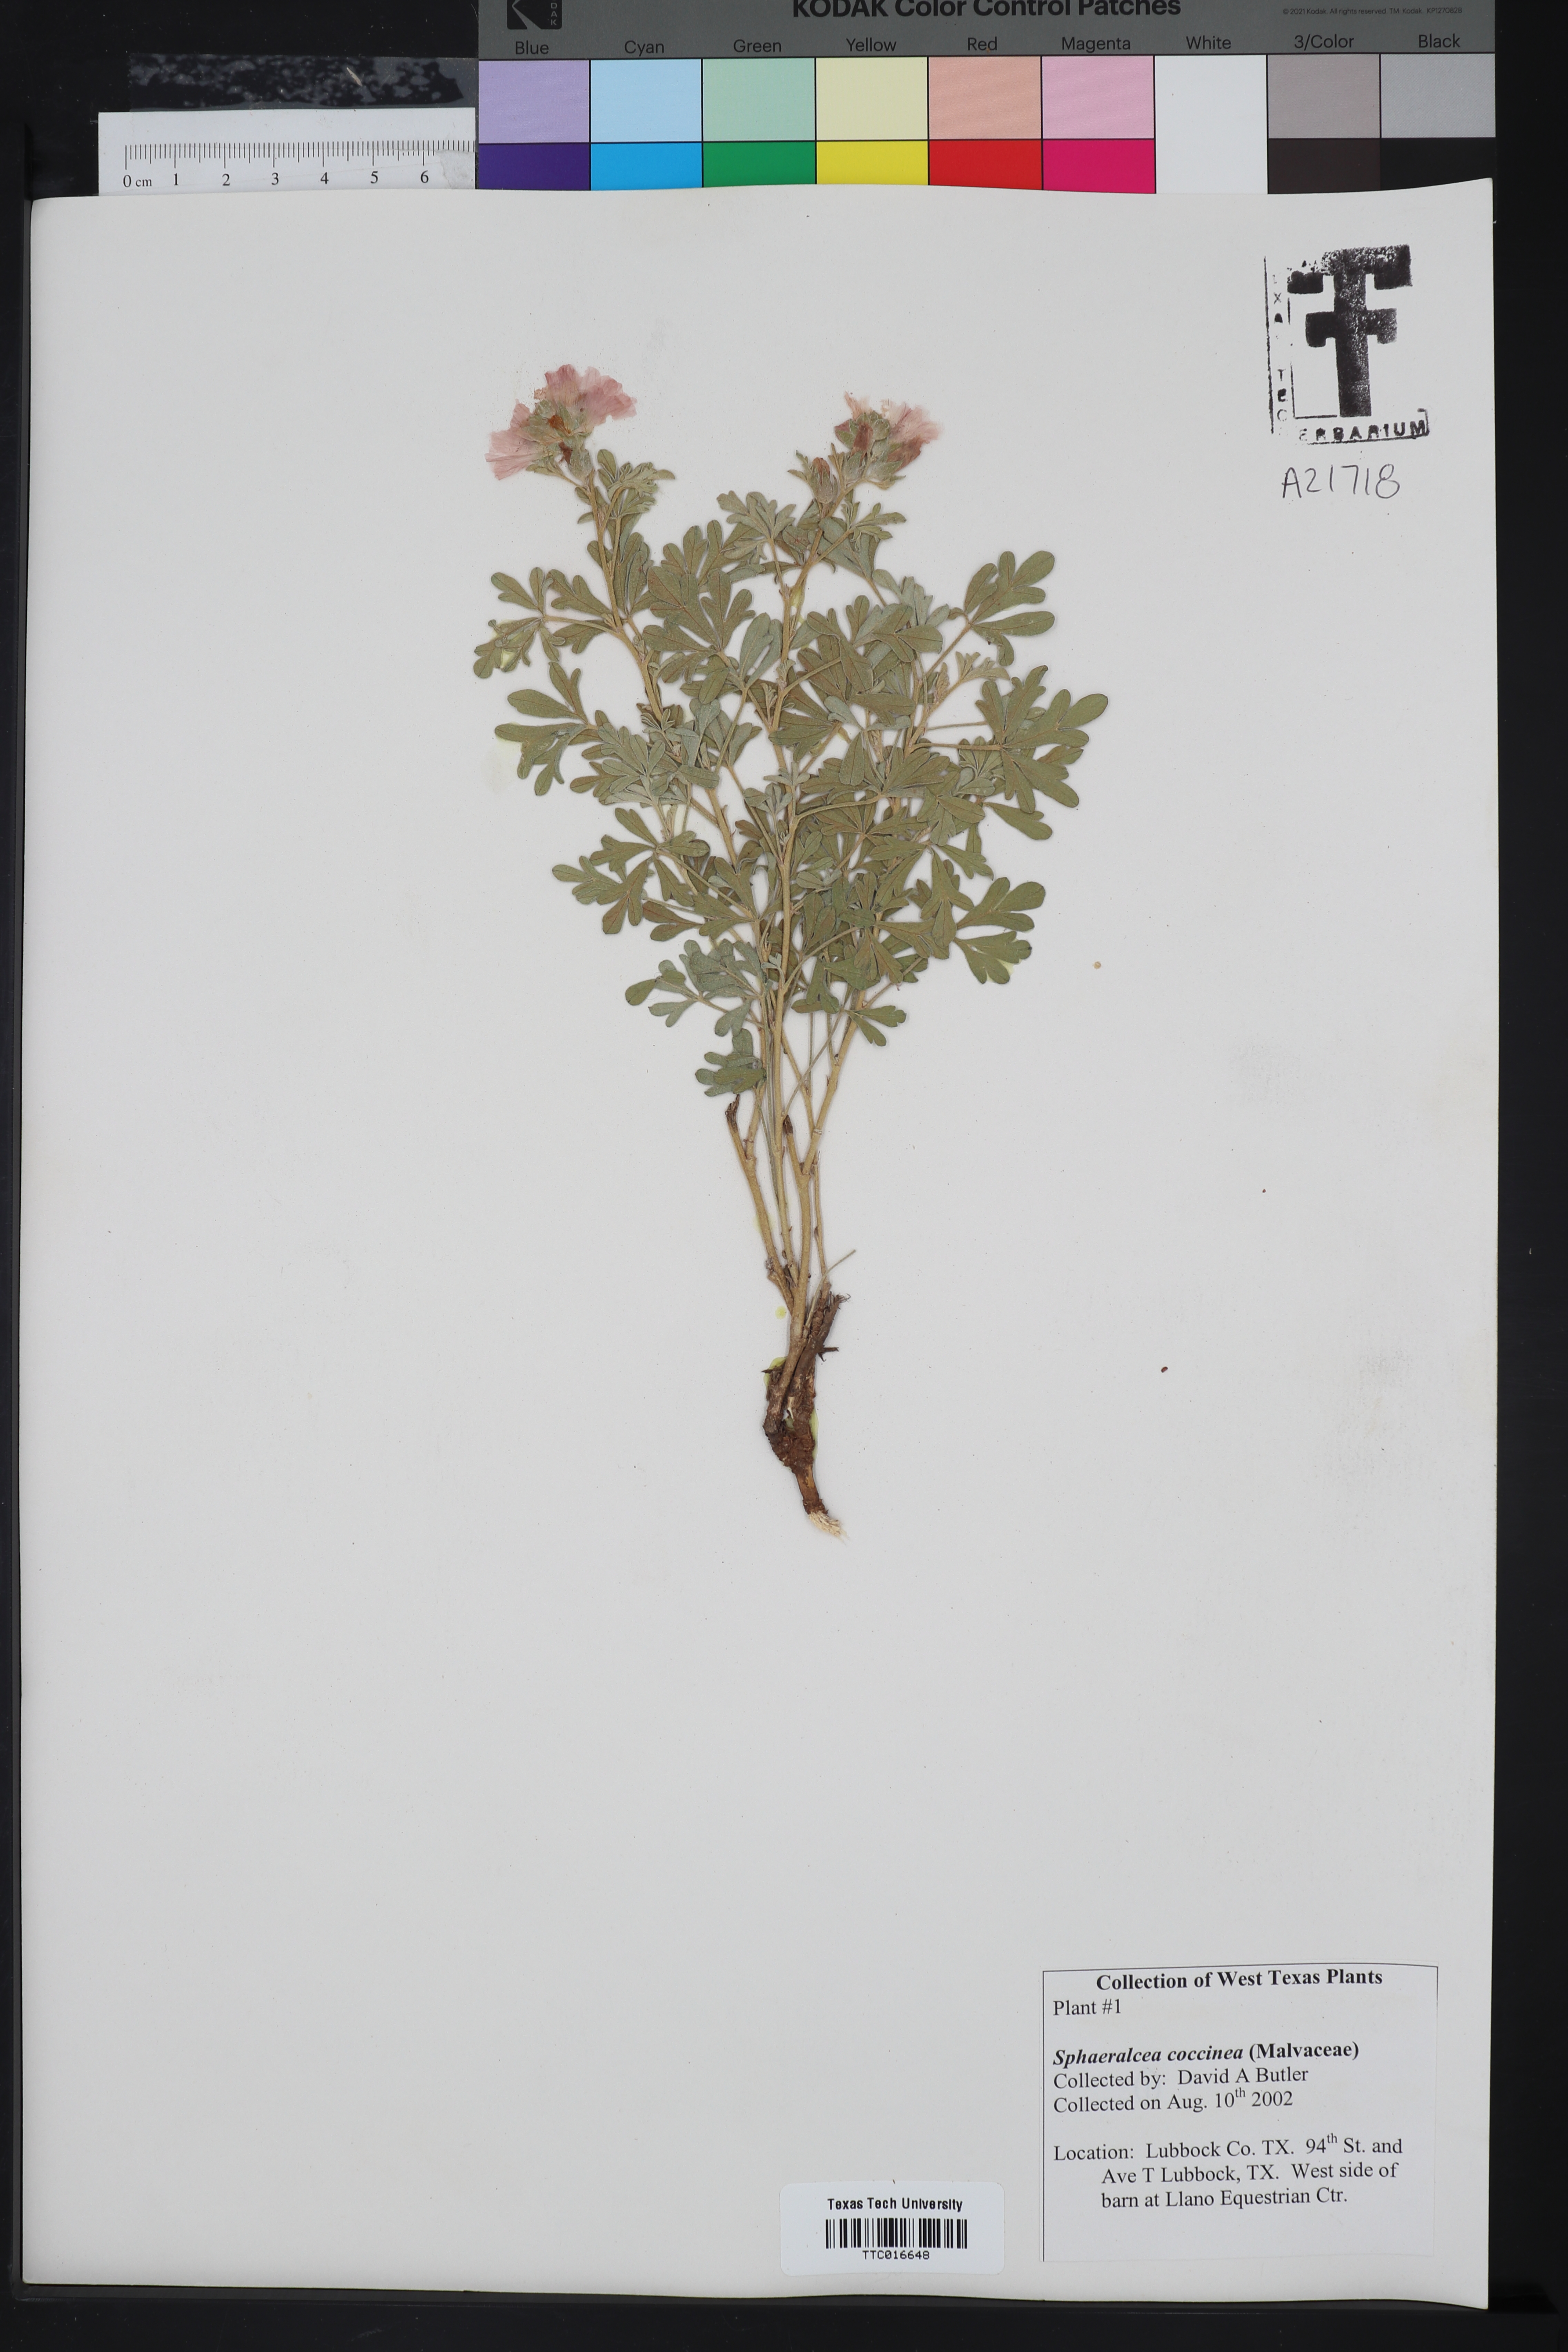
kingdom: Plantae
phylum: Tracheophyta
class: Magnoliopsida
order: Malvales
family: Malvaceae
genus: Sphaeralcea
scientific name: Sphaeralcea coccinea
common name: Moss-rose
